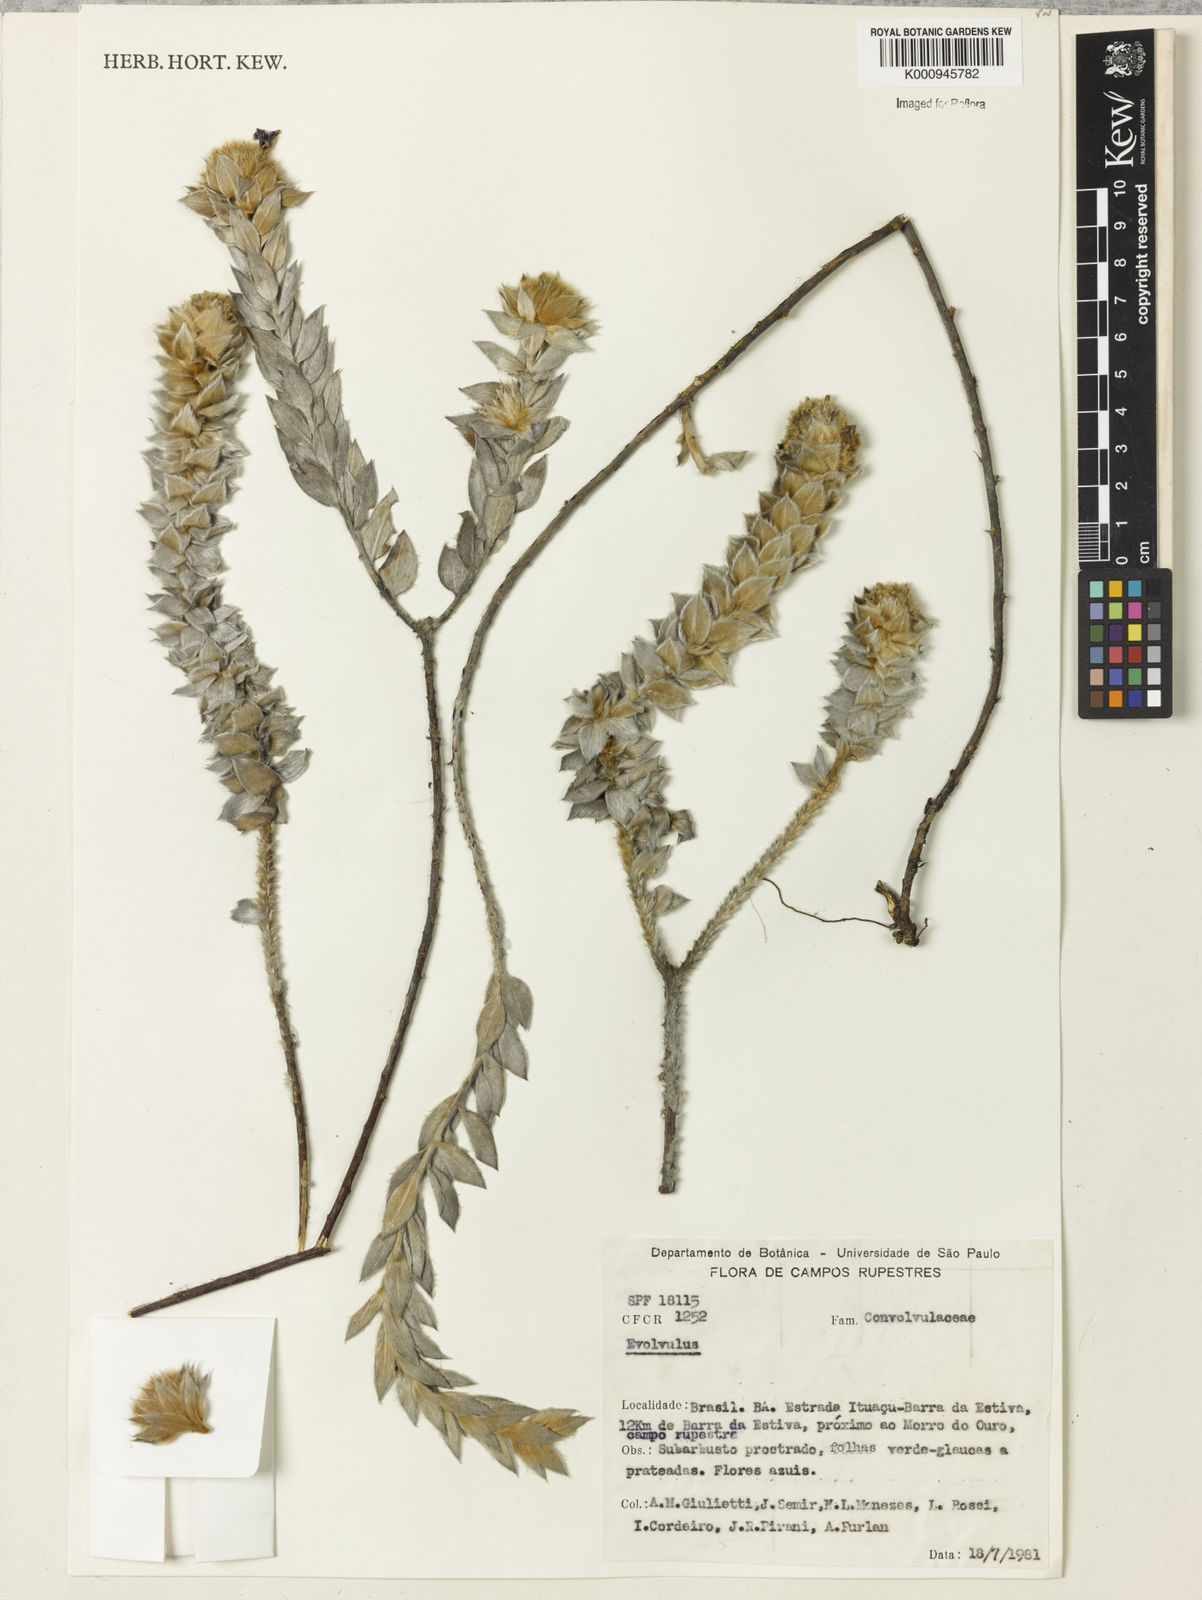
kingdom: Plantae
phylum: Tracheophyta
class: Magnoliopsida
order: Solanales
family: Convolvulaceae
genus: Evolvulus
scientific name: Evolvulus
